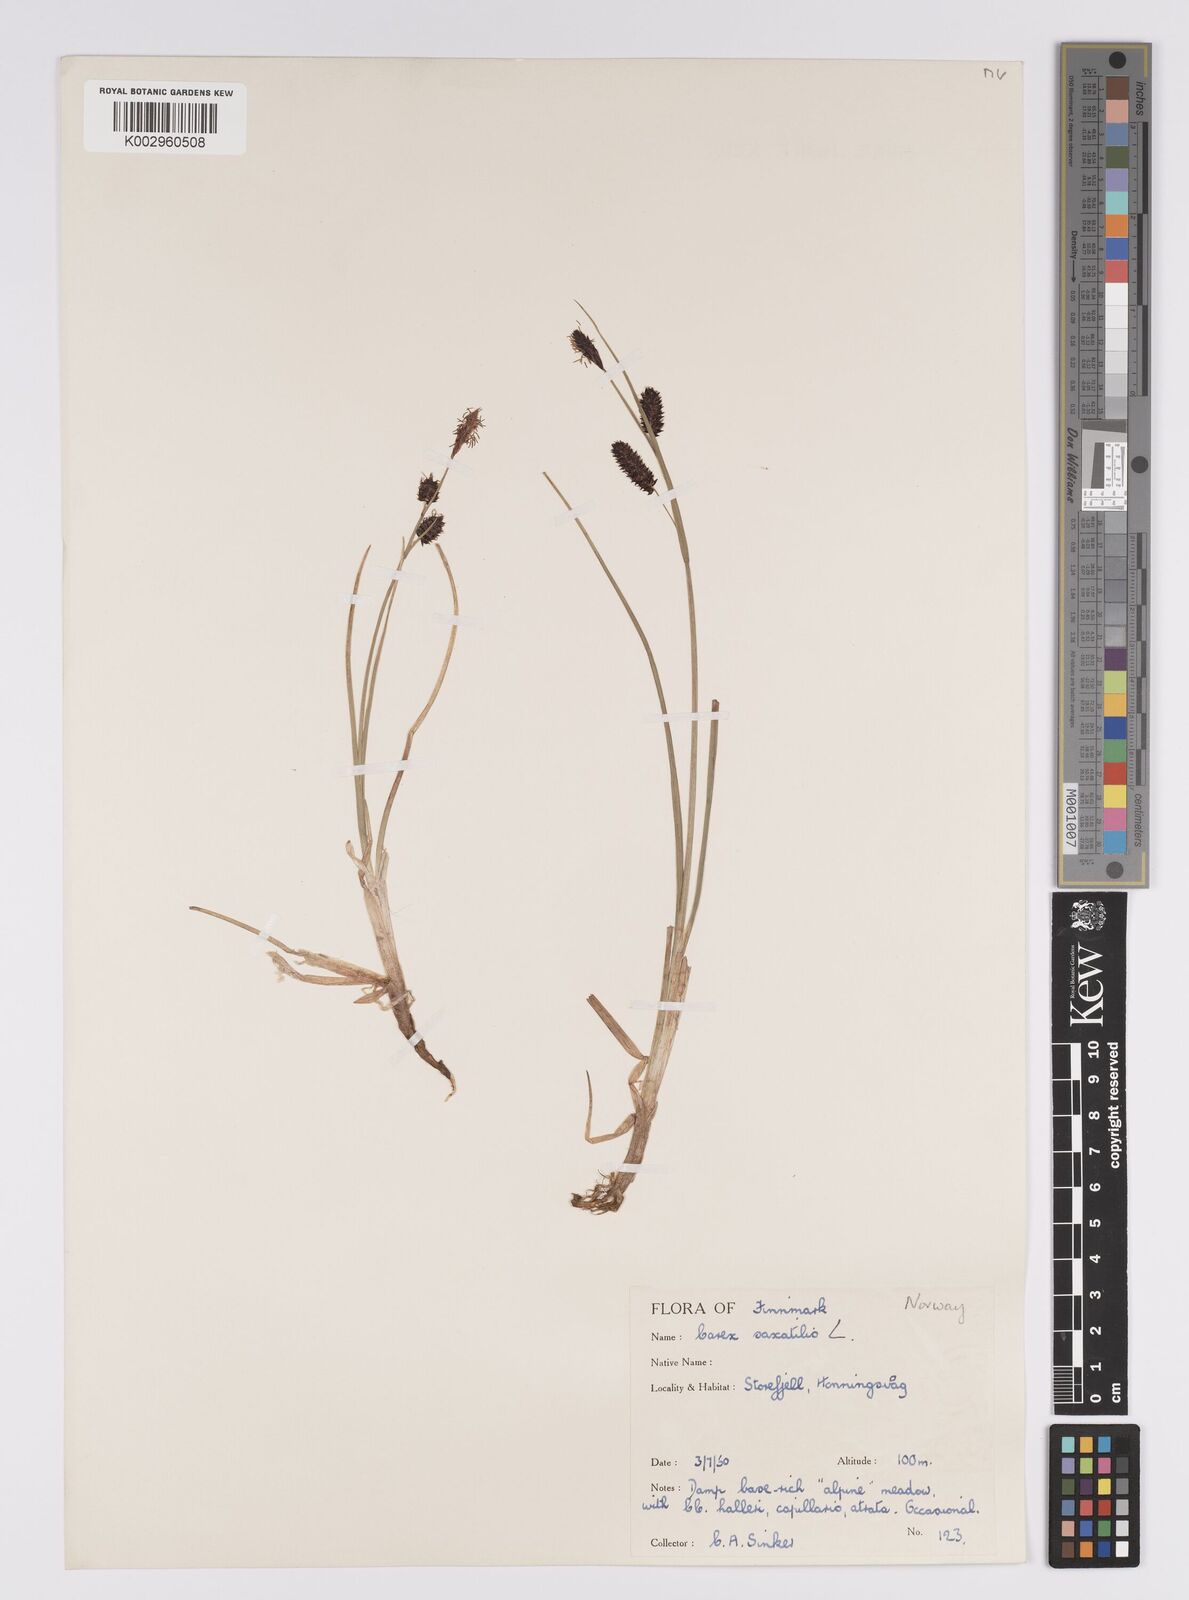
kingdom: Plantae
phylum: Tracheophyta
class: Liliopsida
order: Poales
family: Cyperaceae
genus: Carex
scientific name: Carex saxatilis
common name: Russet sedge
